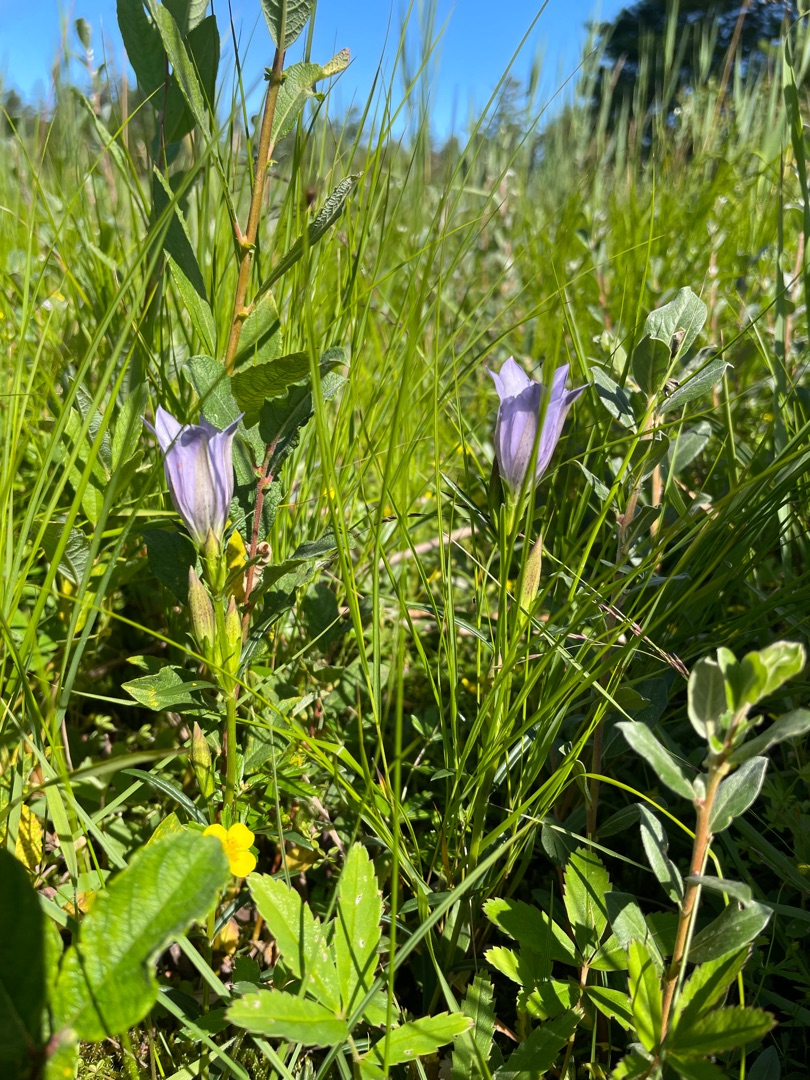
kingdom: Plantae
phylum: Tracheophyta
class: Magnoliopsida
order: Gentianales
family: Gentianaceae
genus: Gentiana
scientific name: Gentiana pneumonanthe
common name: Klokke-ensian
